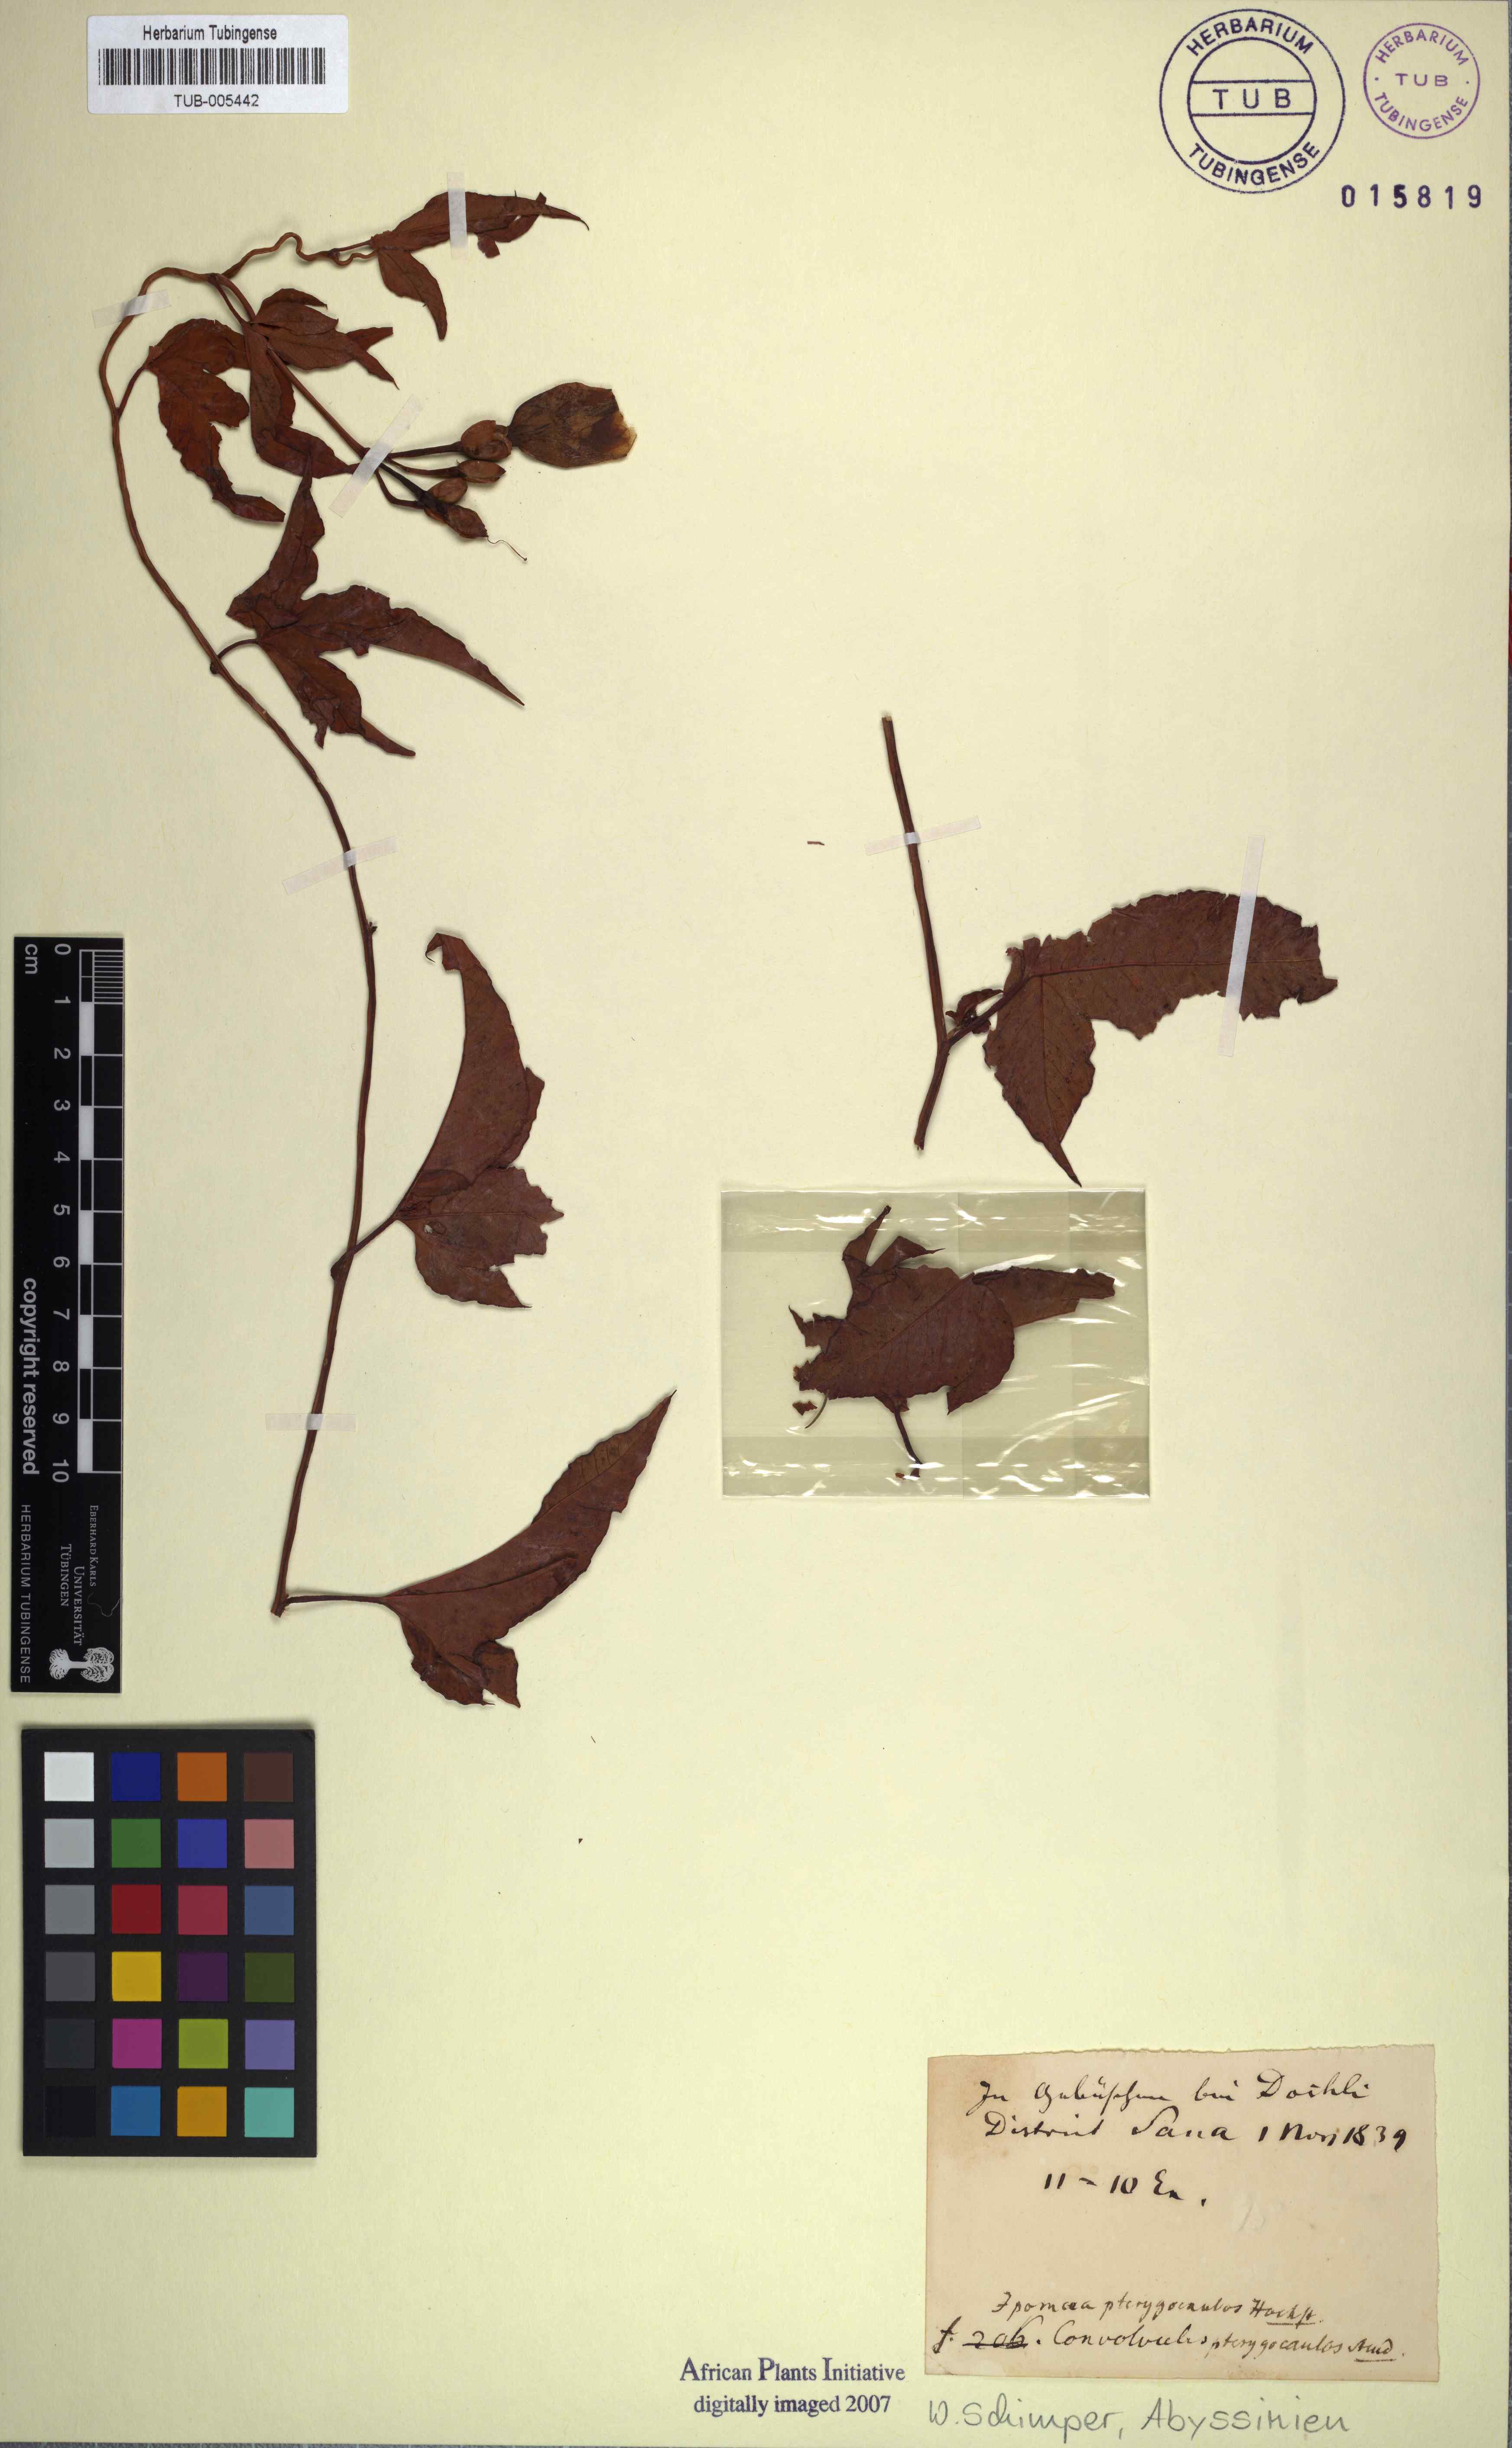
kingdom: Plantae
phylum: Tracheophyta
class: Magnoliopsida
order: Solanales
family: Convolvulaceae
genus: Merremia
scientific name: Merremia pterygocaulos
